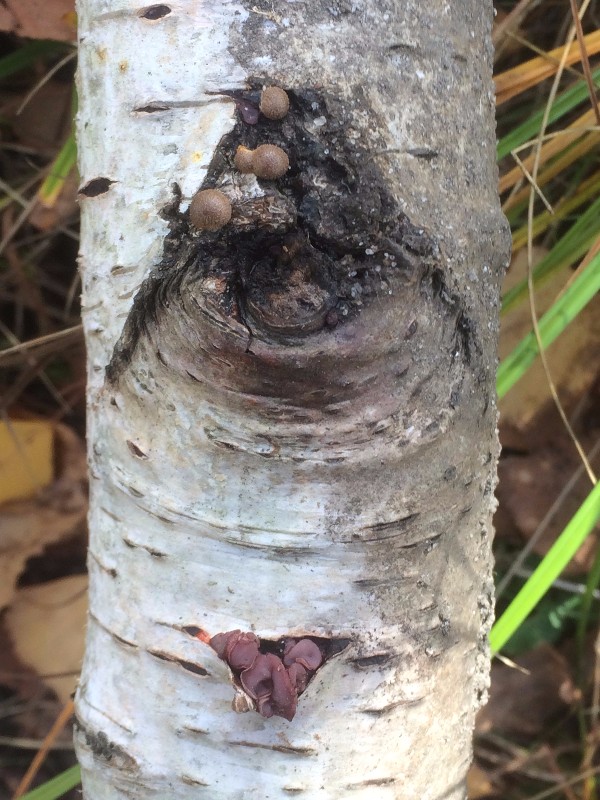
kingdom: Protozoa
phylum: Mycetozoa
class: Myxomycetes
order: Cribrariales
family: Tubiferaceae
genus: Lycogala
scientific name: Lycogala epidendrum
